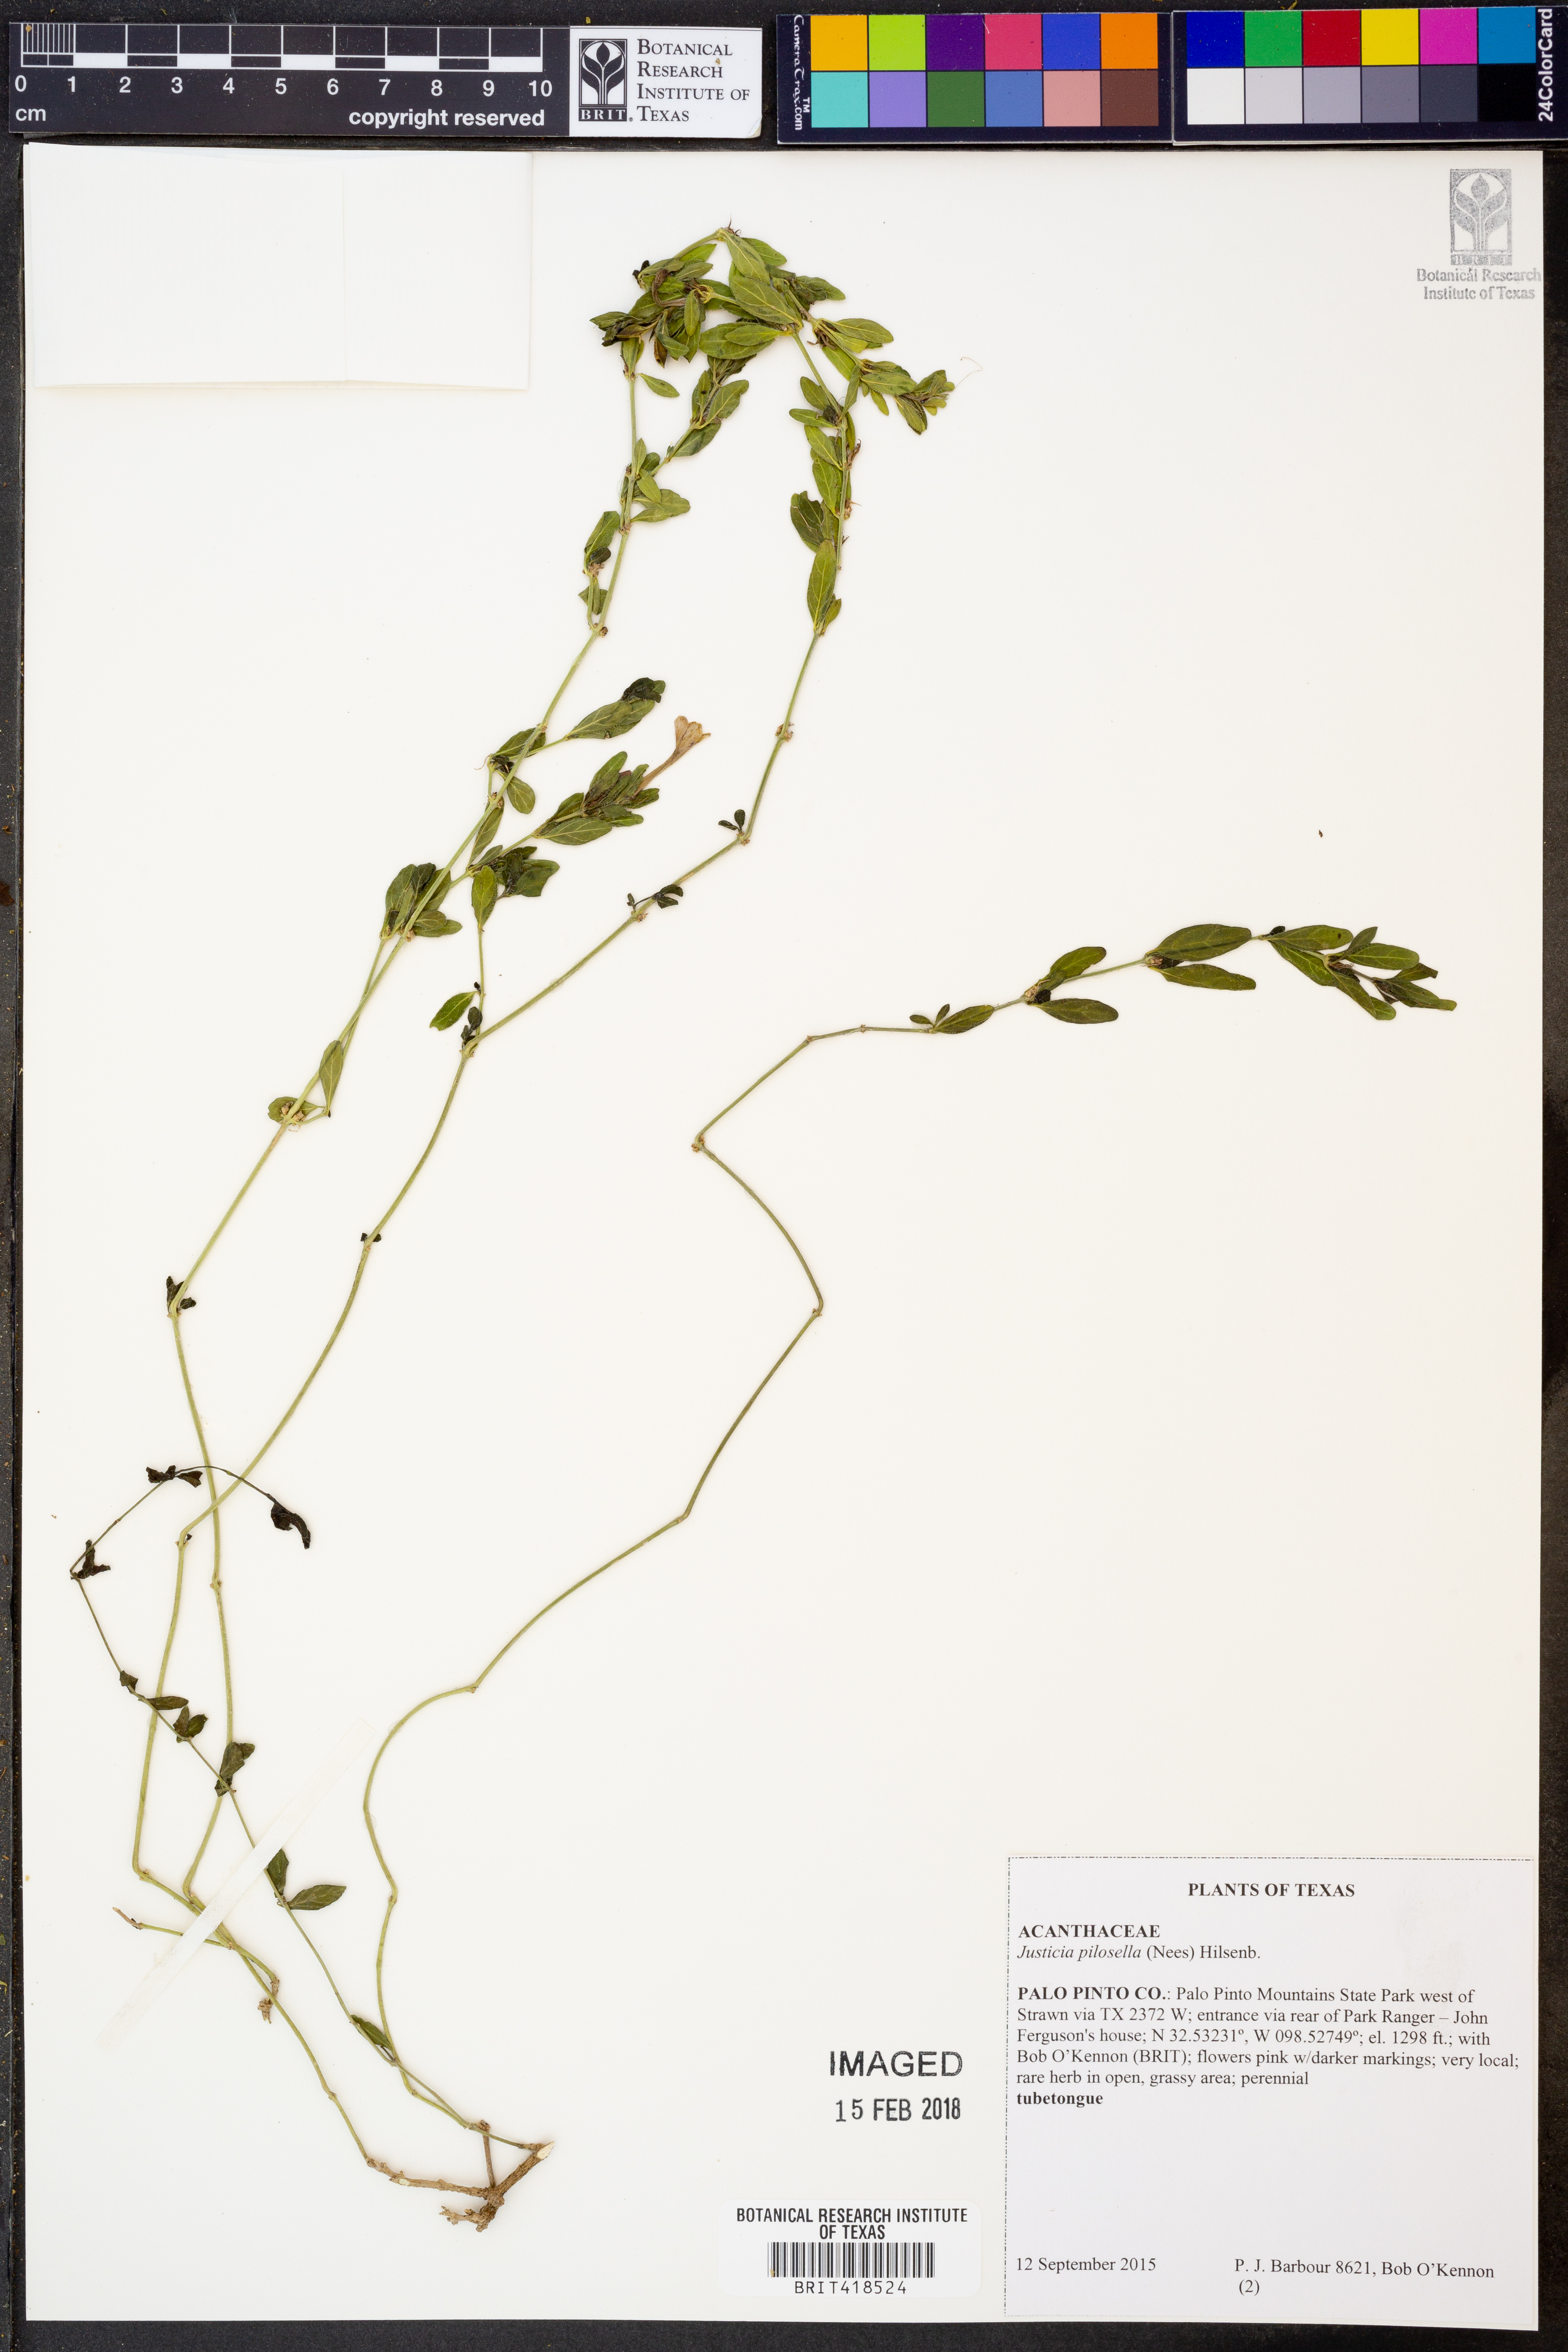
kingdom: Plantae
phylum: Tracheophyta
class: Magnoliopsida
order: Lamiales
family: Acanthaceae
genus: Justicia
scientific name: Justicia pilosella
